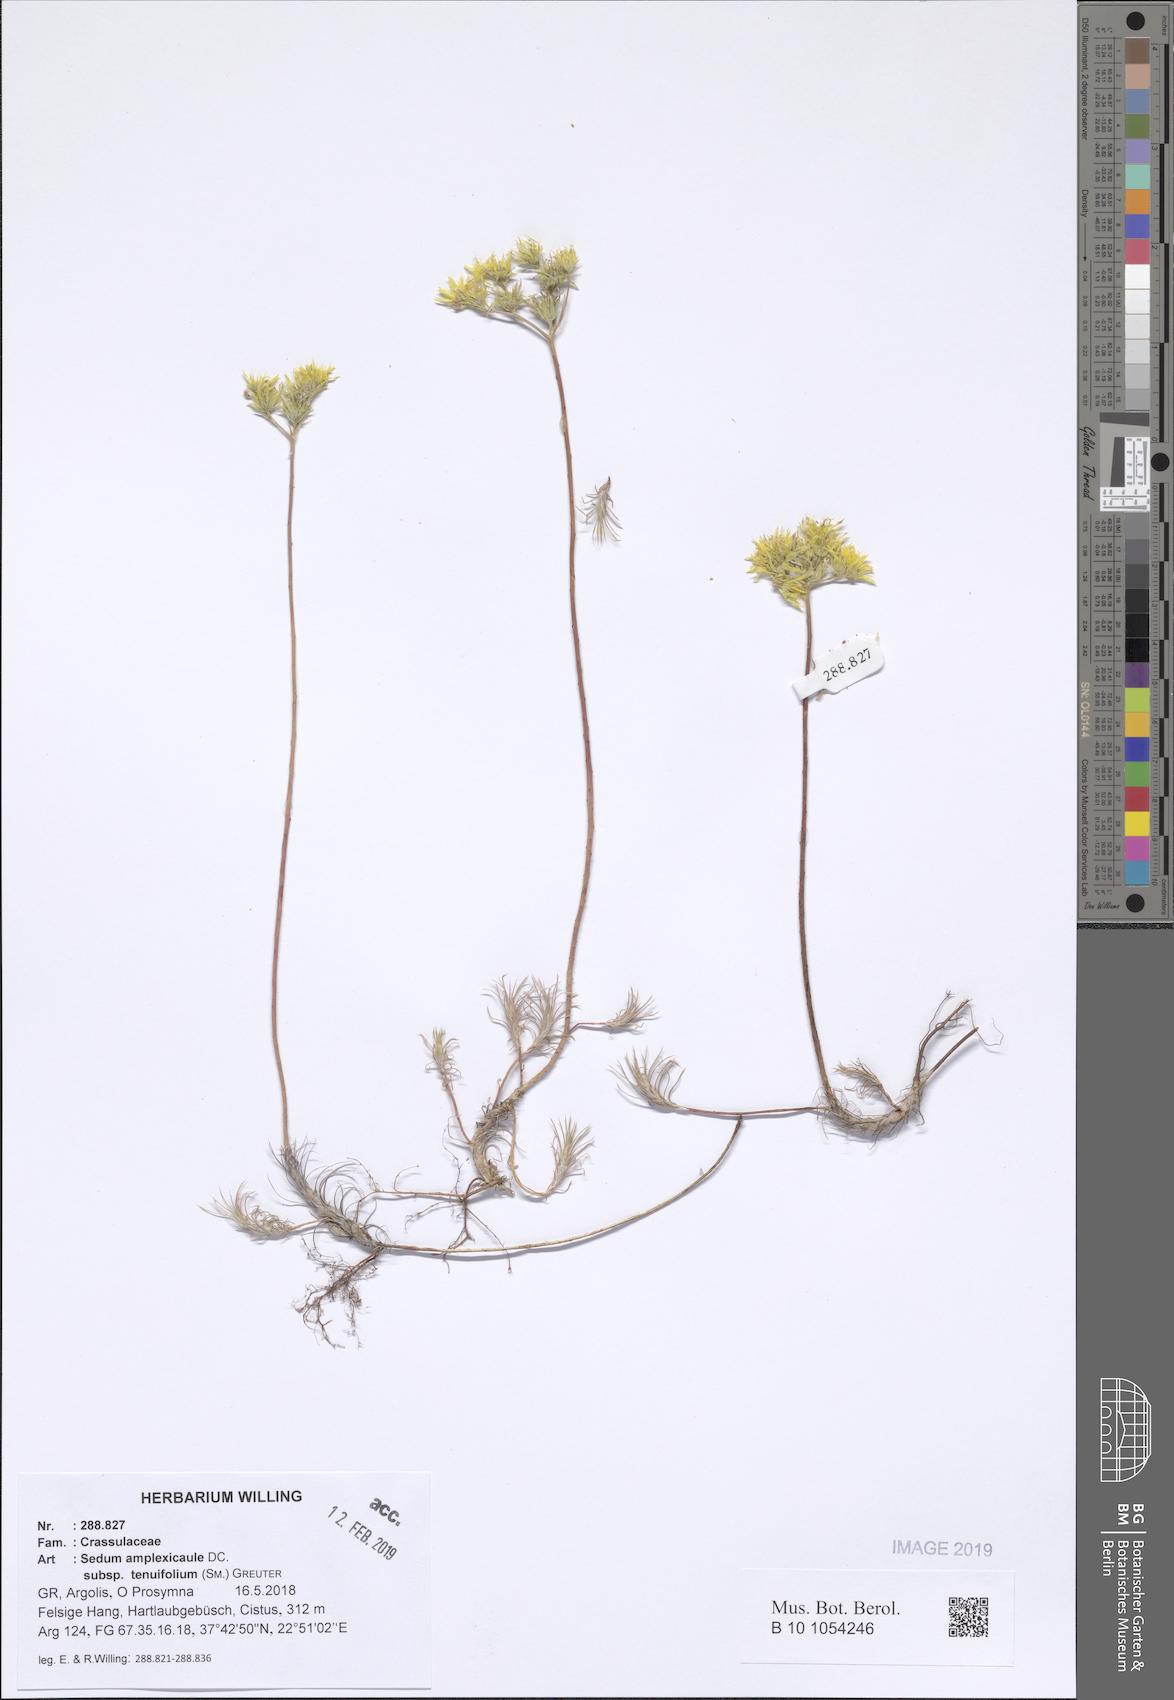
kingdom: Plantae
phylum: Tracheophyta
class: Magnoliopsida
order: Saxifragales
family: Crassulaceae
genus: Petrosedum
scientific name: Petrosedum tenuifolium
